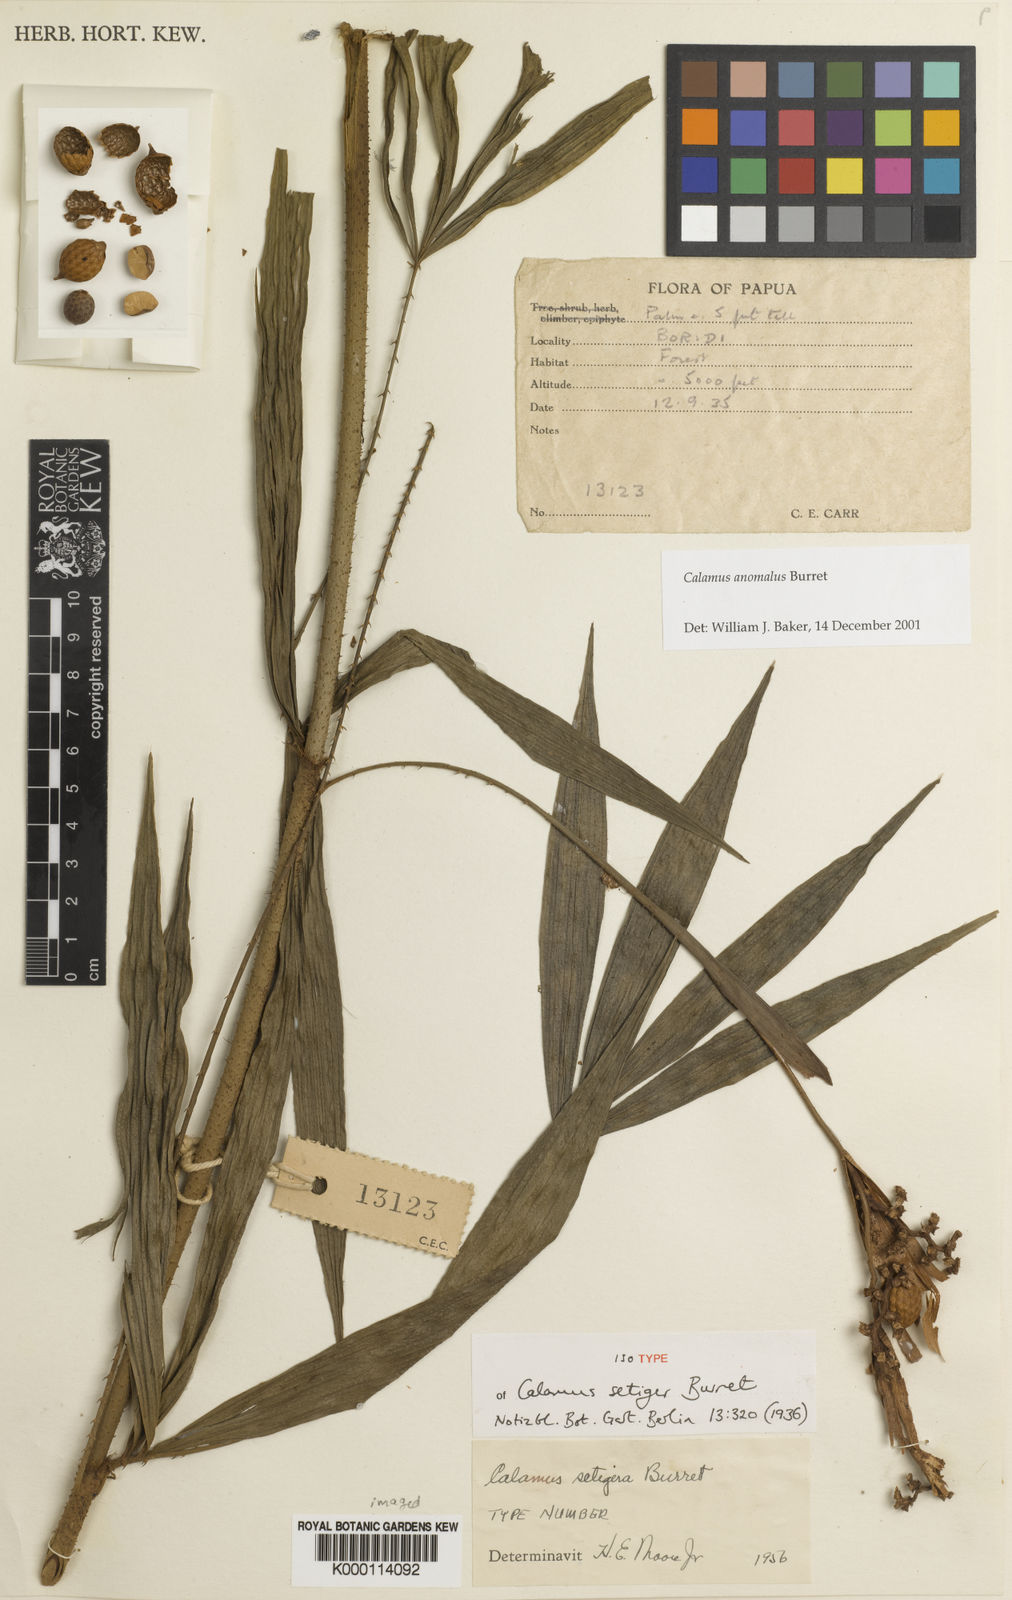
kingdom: Plantae
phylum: Tracheophyta
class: Liliopsida
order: Arecales
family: Arecaceae
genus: Calamus
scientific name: Calamus anomalus
